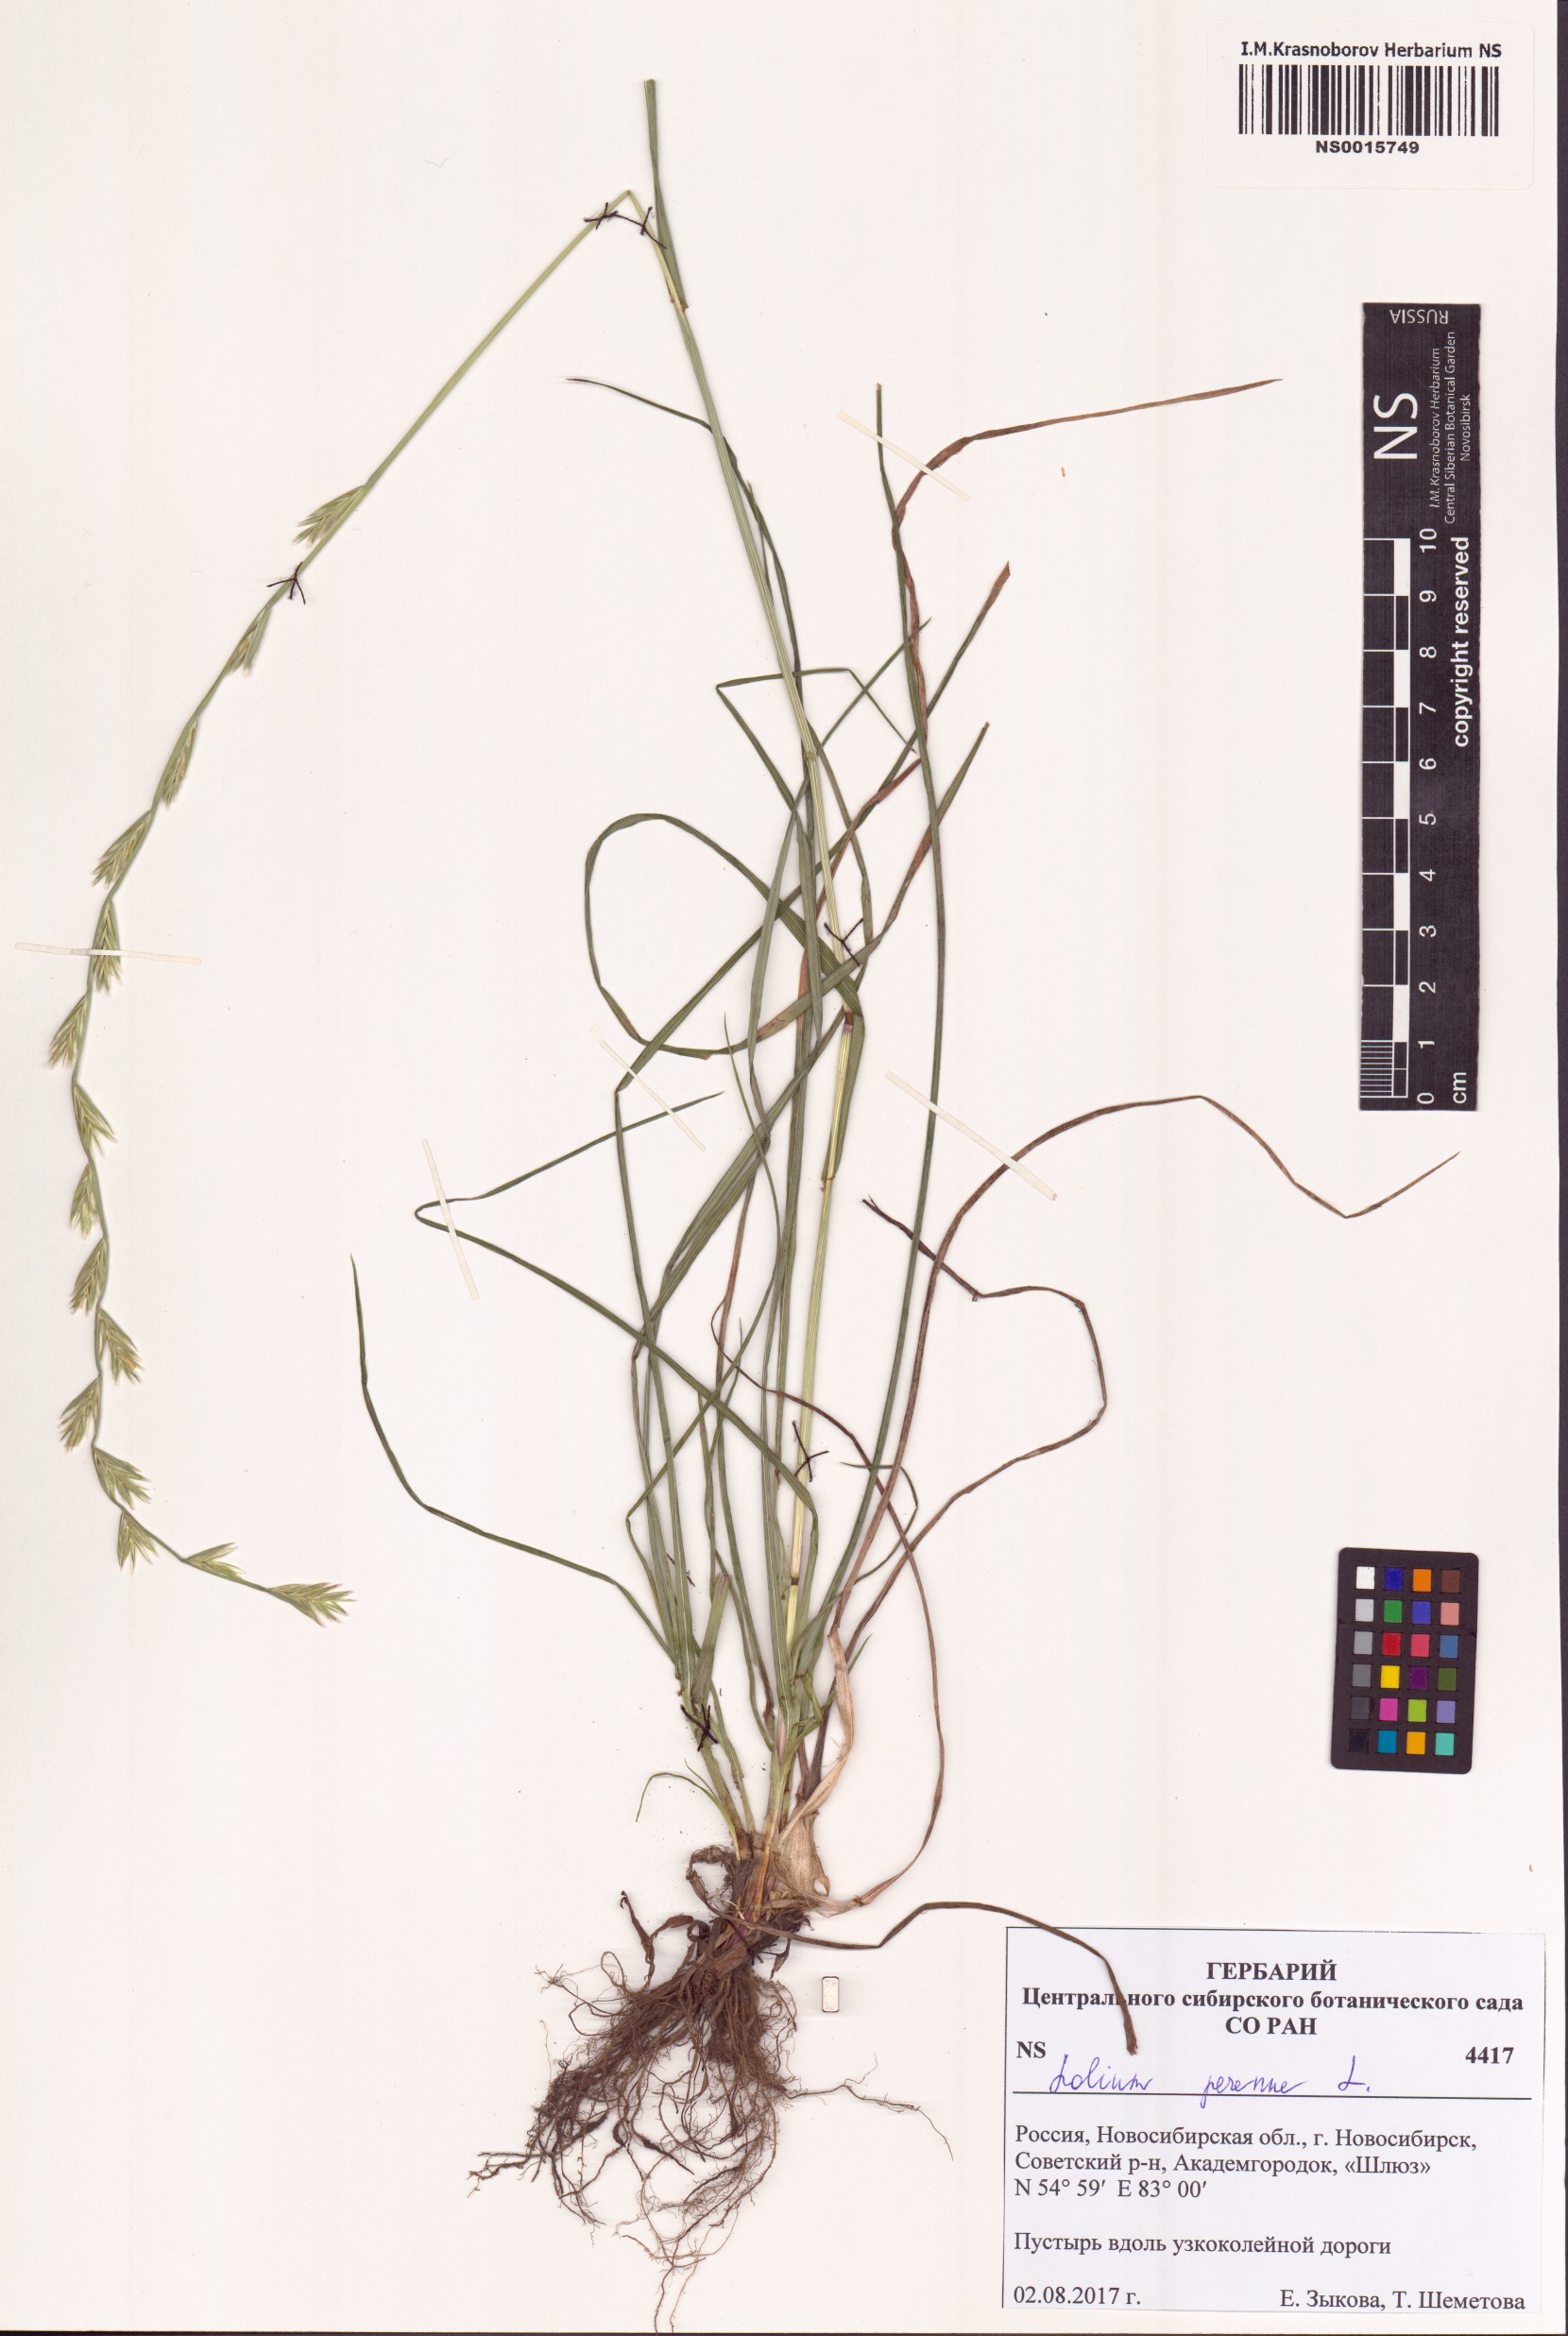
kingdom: Plantae
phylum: Tracheophyta
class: Liliopsida
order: Poales
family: Poaceae
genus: Lolium
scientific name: Lolium perenne
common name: Perennial ryegrass
